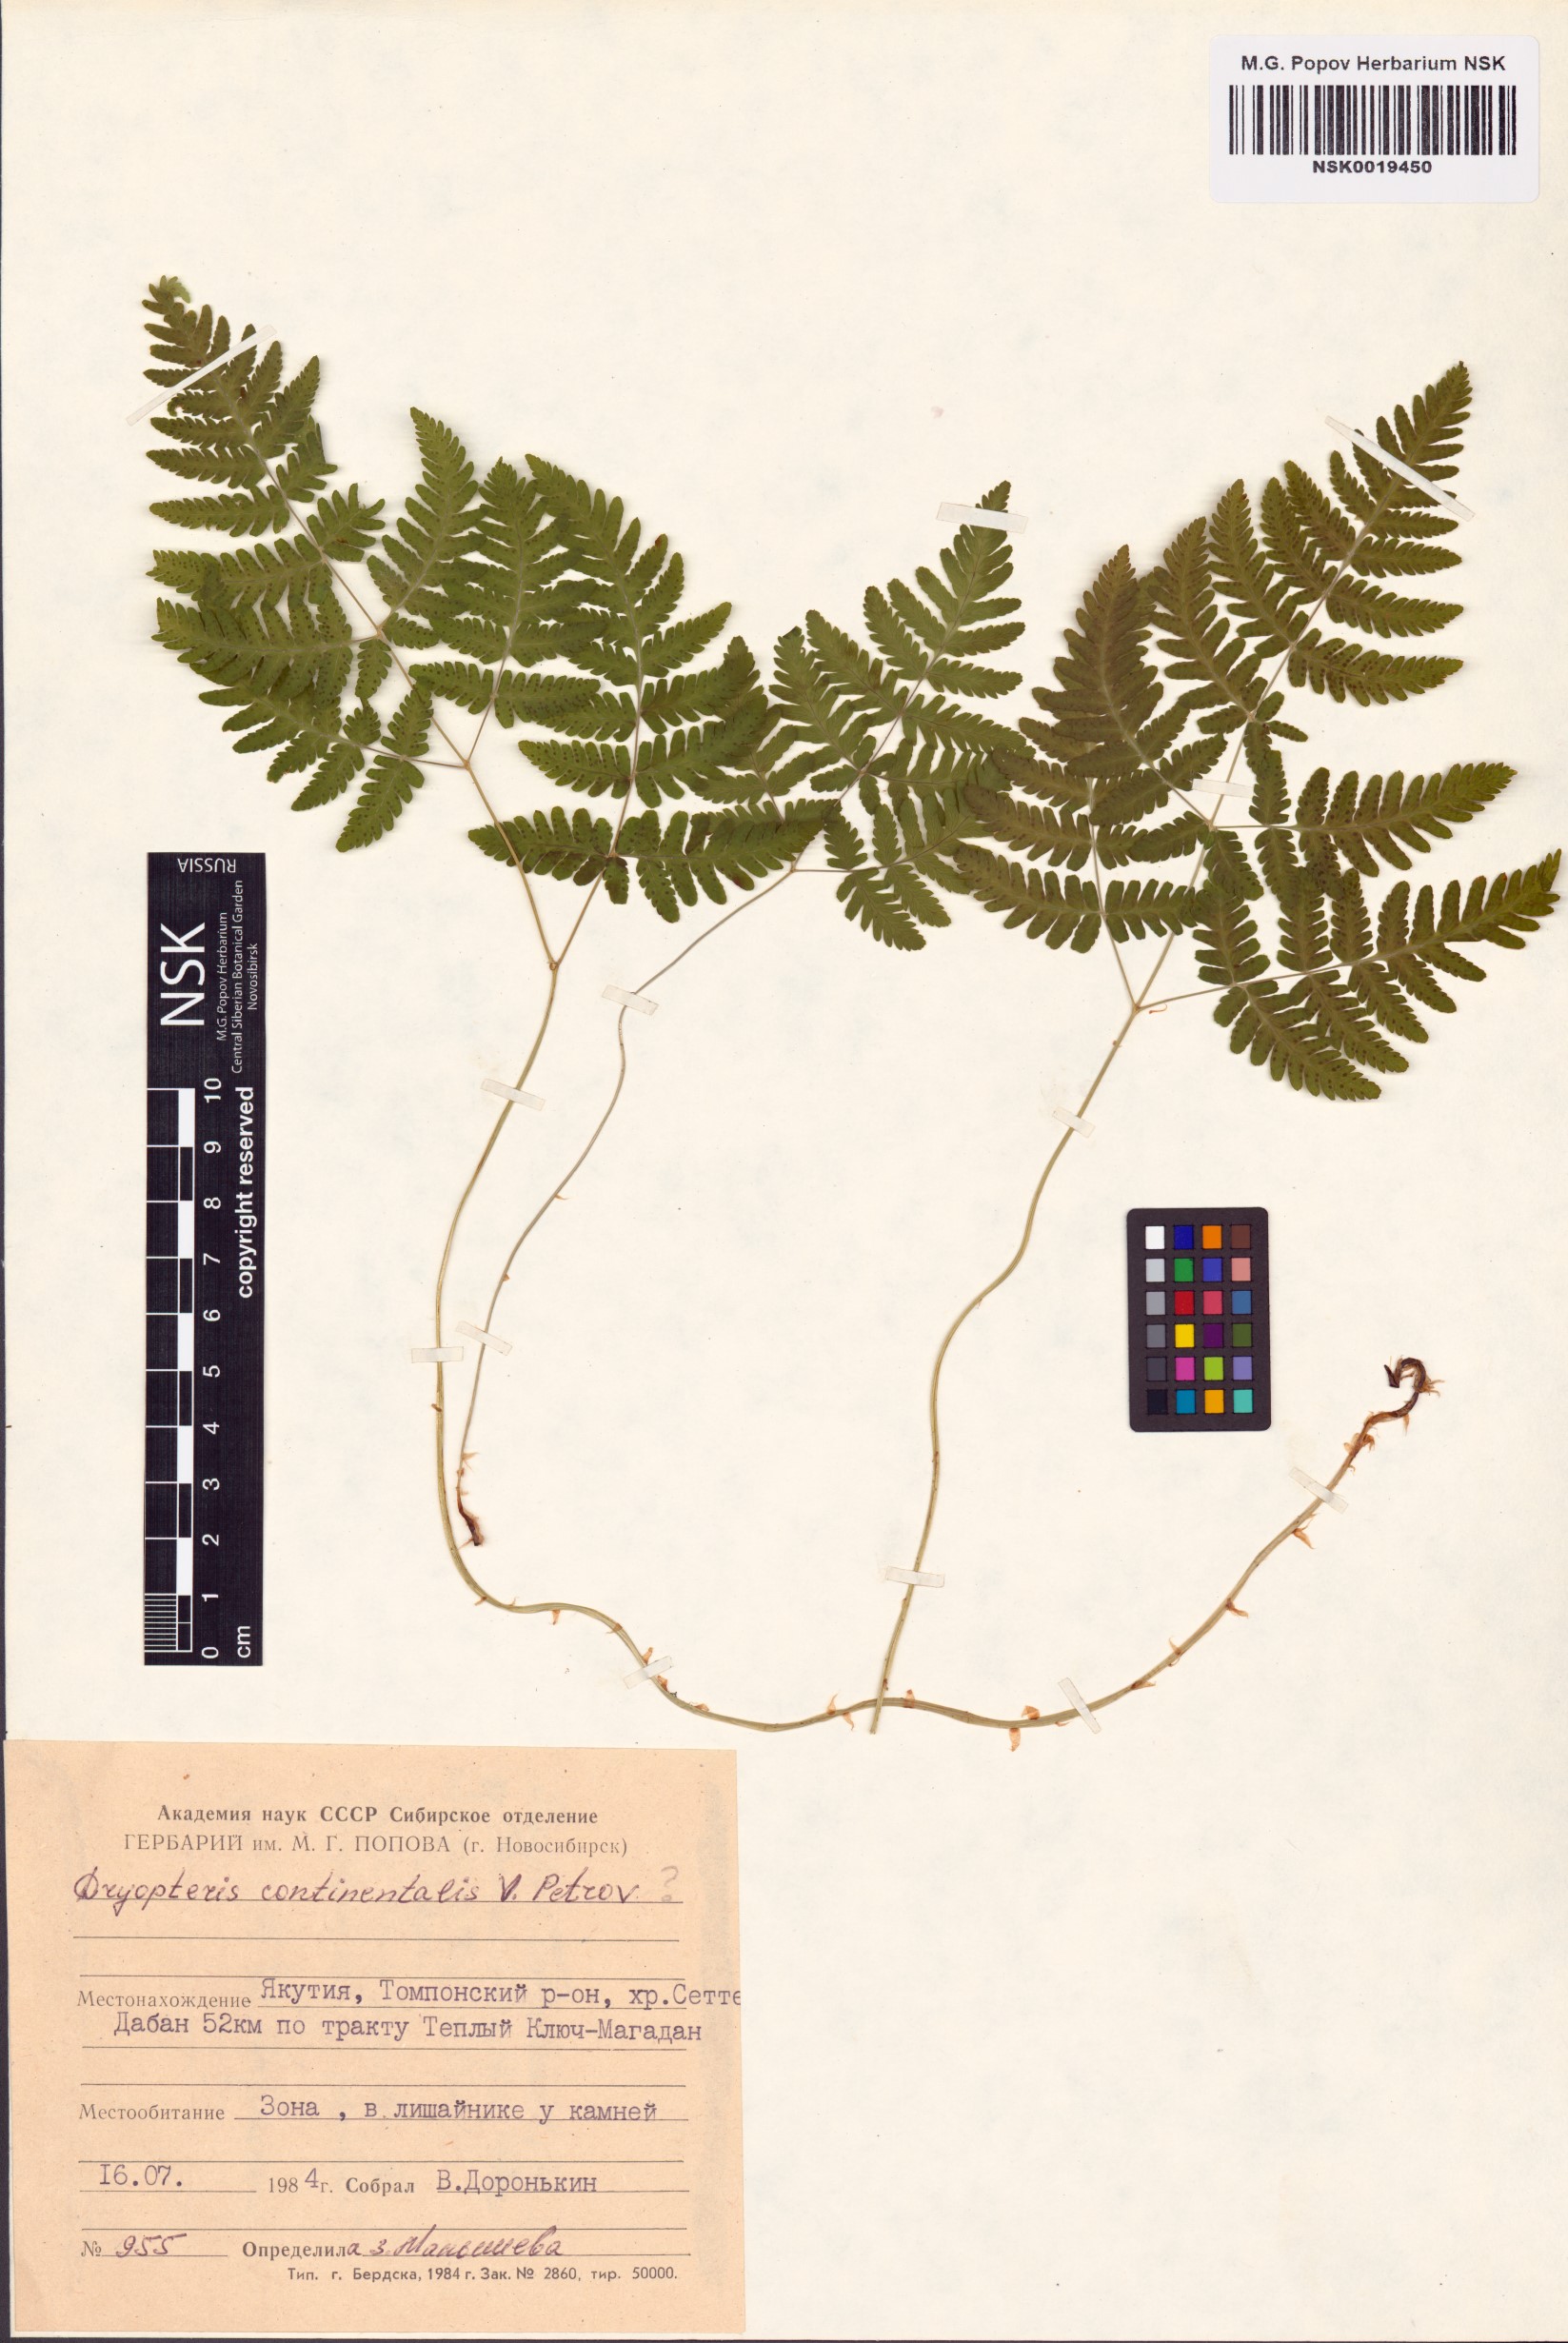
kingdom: Plantae
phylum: Tracheophyta
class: Polypodiopsida
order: Polypodiales
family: Cystopteridaceae
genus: Gymnocarpium
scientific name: Gymnocarpium continentale
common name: Asian oak fern
